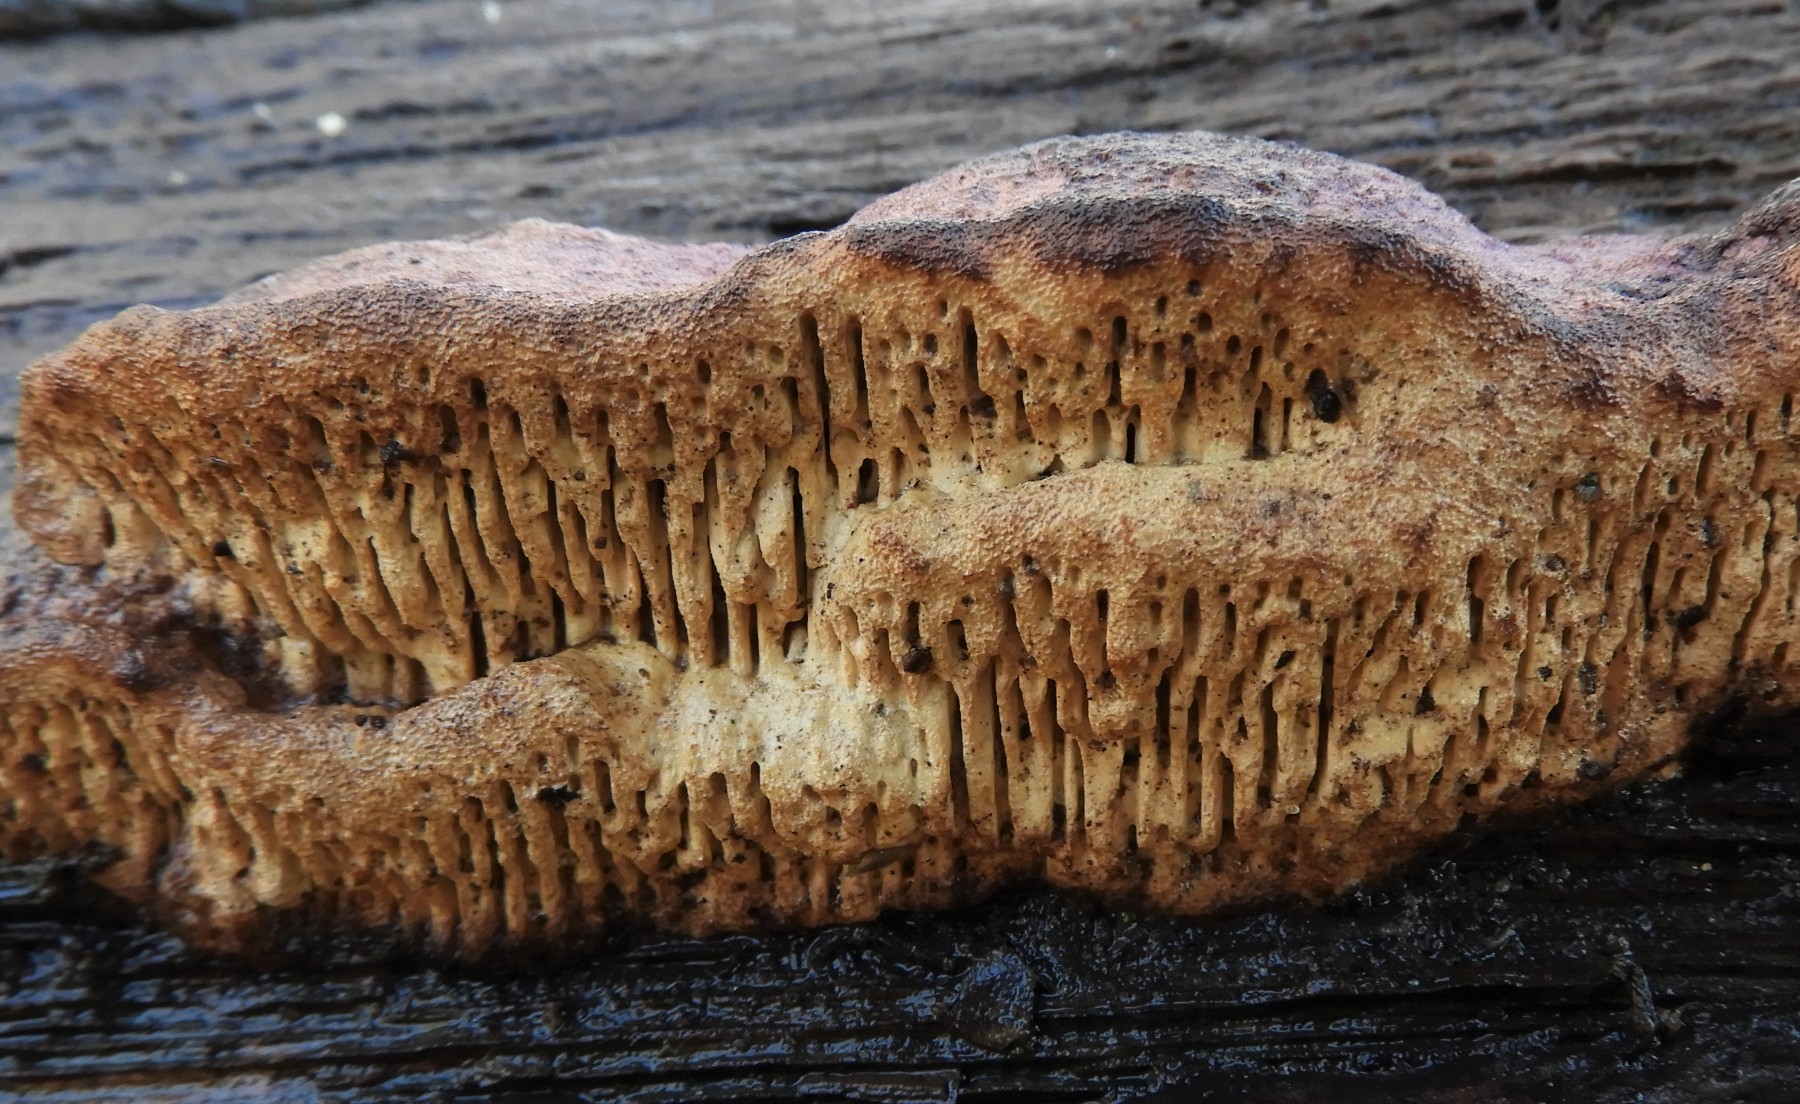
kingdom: Fungi
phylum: Basidiomycota
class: Agaricomycetes
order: Polyporales
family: Fomitopsidaceae
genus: Daedalea
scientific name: Daedalea quercina
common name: ege-labyrintsvamp
